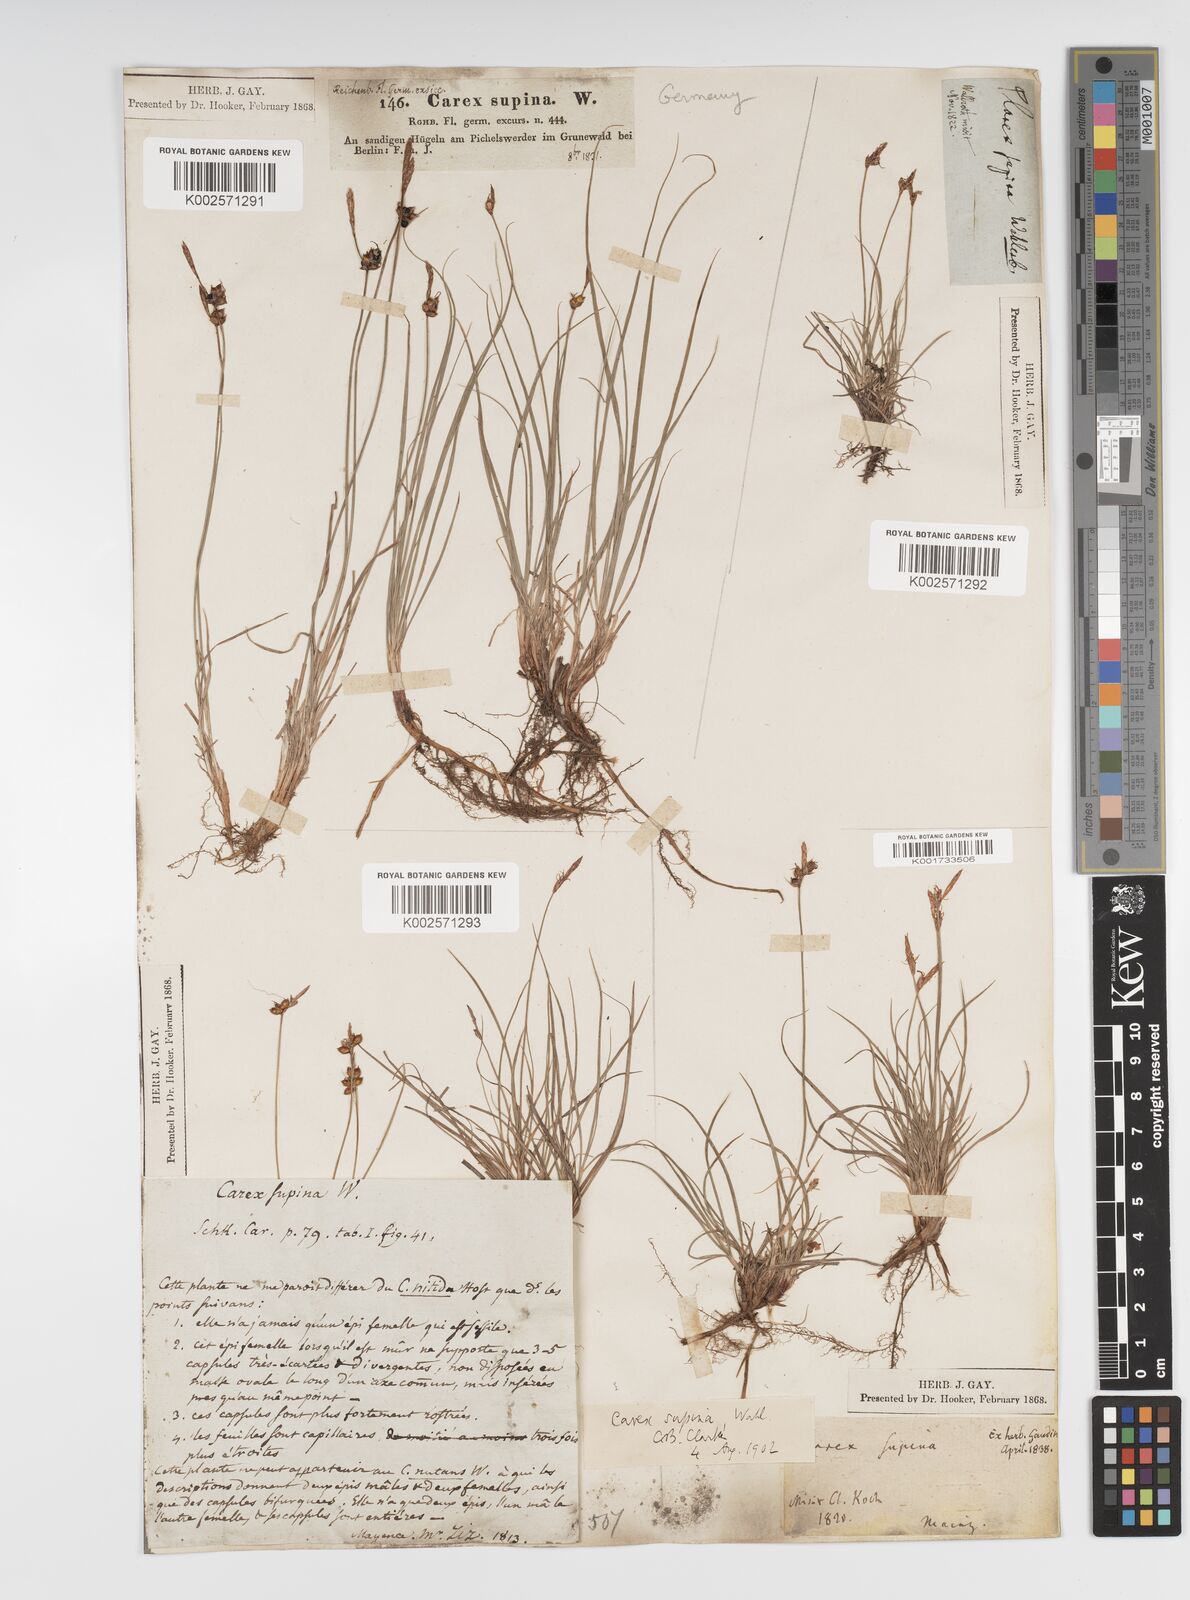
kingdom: Plantae
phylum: Tracheophyta
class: Liliopsida
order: Poales
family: Cyperaceae
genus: Carex
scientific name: Carex supina
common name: Lying-back sedge
